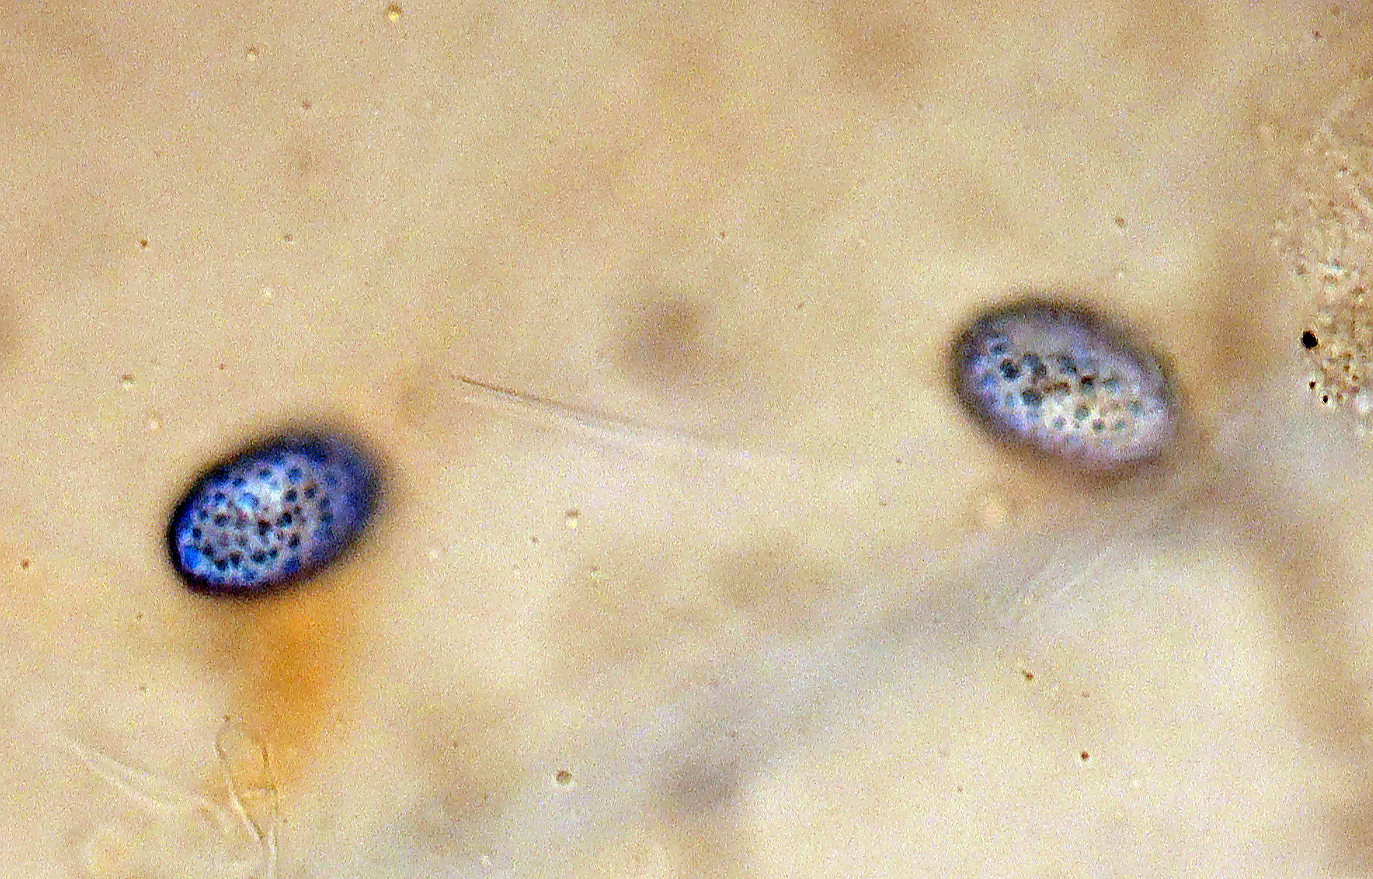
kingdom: Fungi
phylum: Ascomycota
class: Pezizomycetes
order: Pezizales
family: Pyronemataceae
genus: Scutellinia
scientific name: Scutellinia subhirtella
